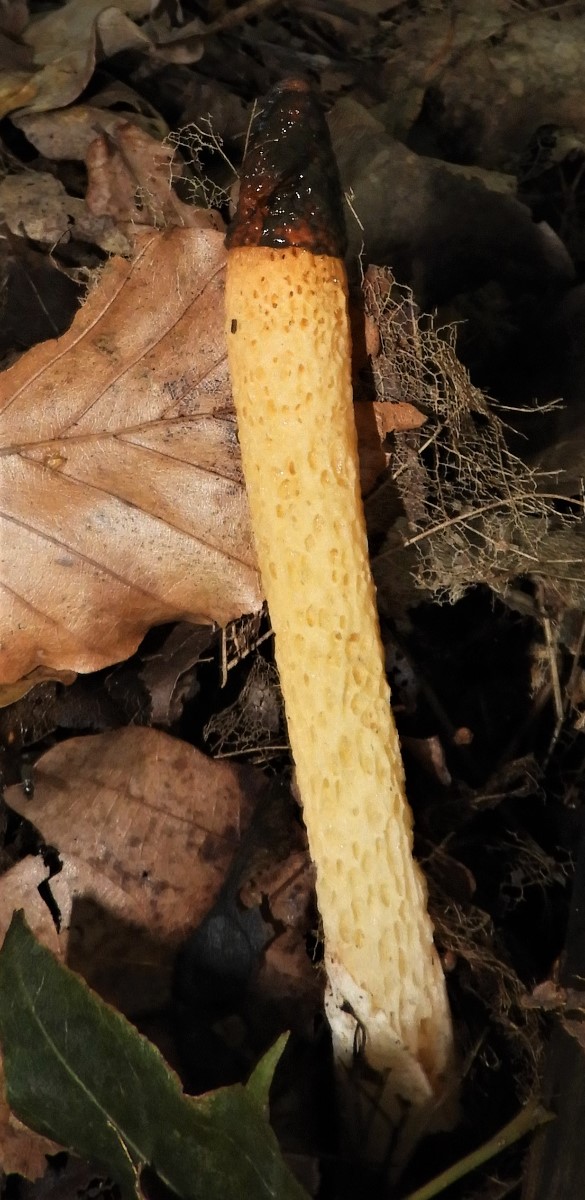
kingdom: Fungi
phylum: Basidiomycota
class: Agaricomycetes
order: Phallales
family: Phallaceae
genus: Mutinus
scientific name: Mutinus caninus
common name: hunde-stinksvamp
